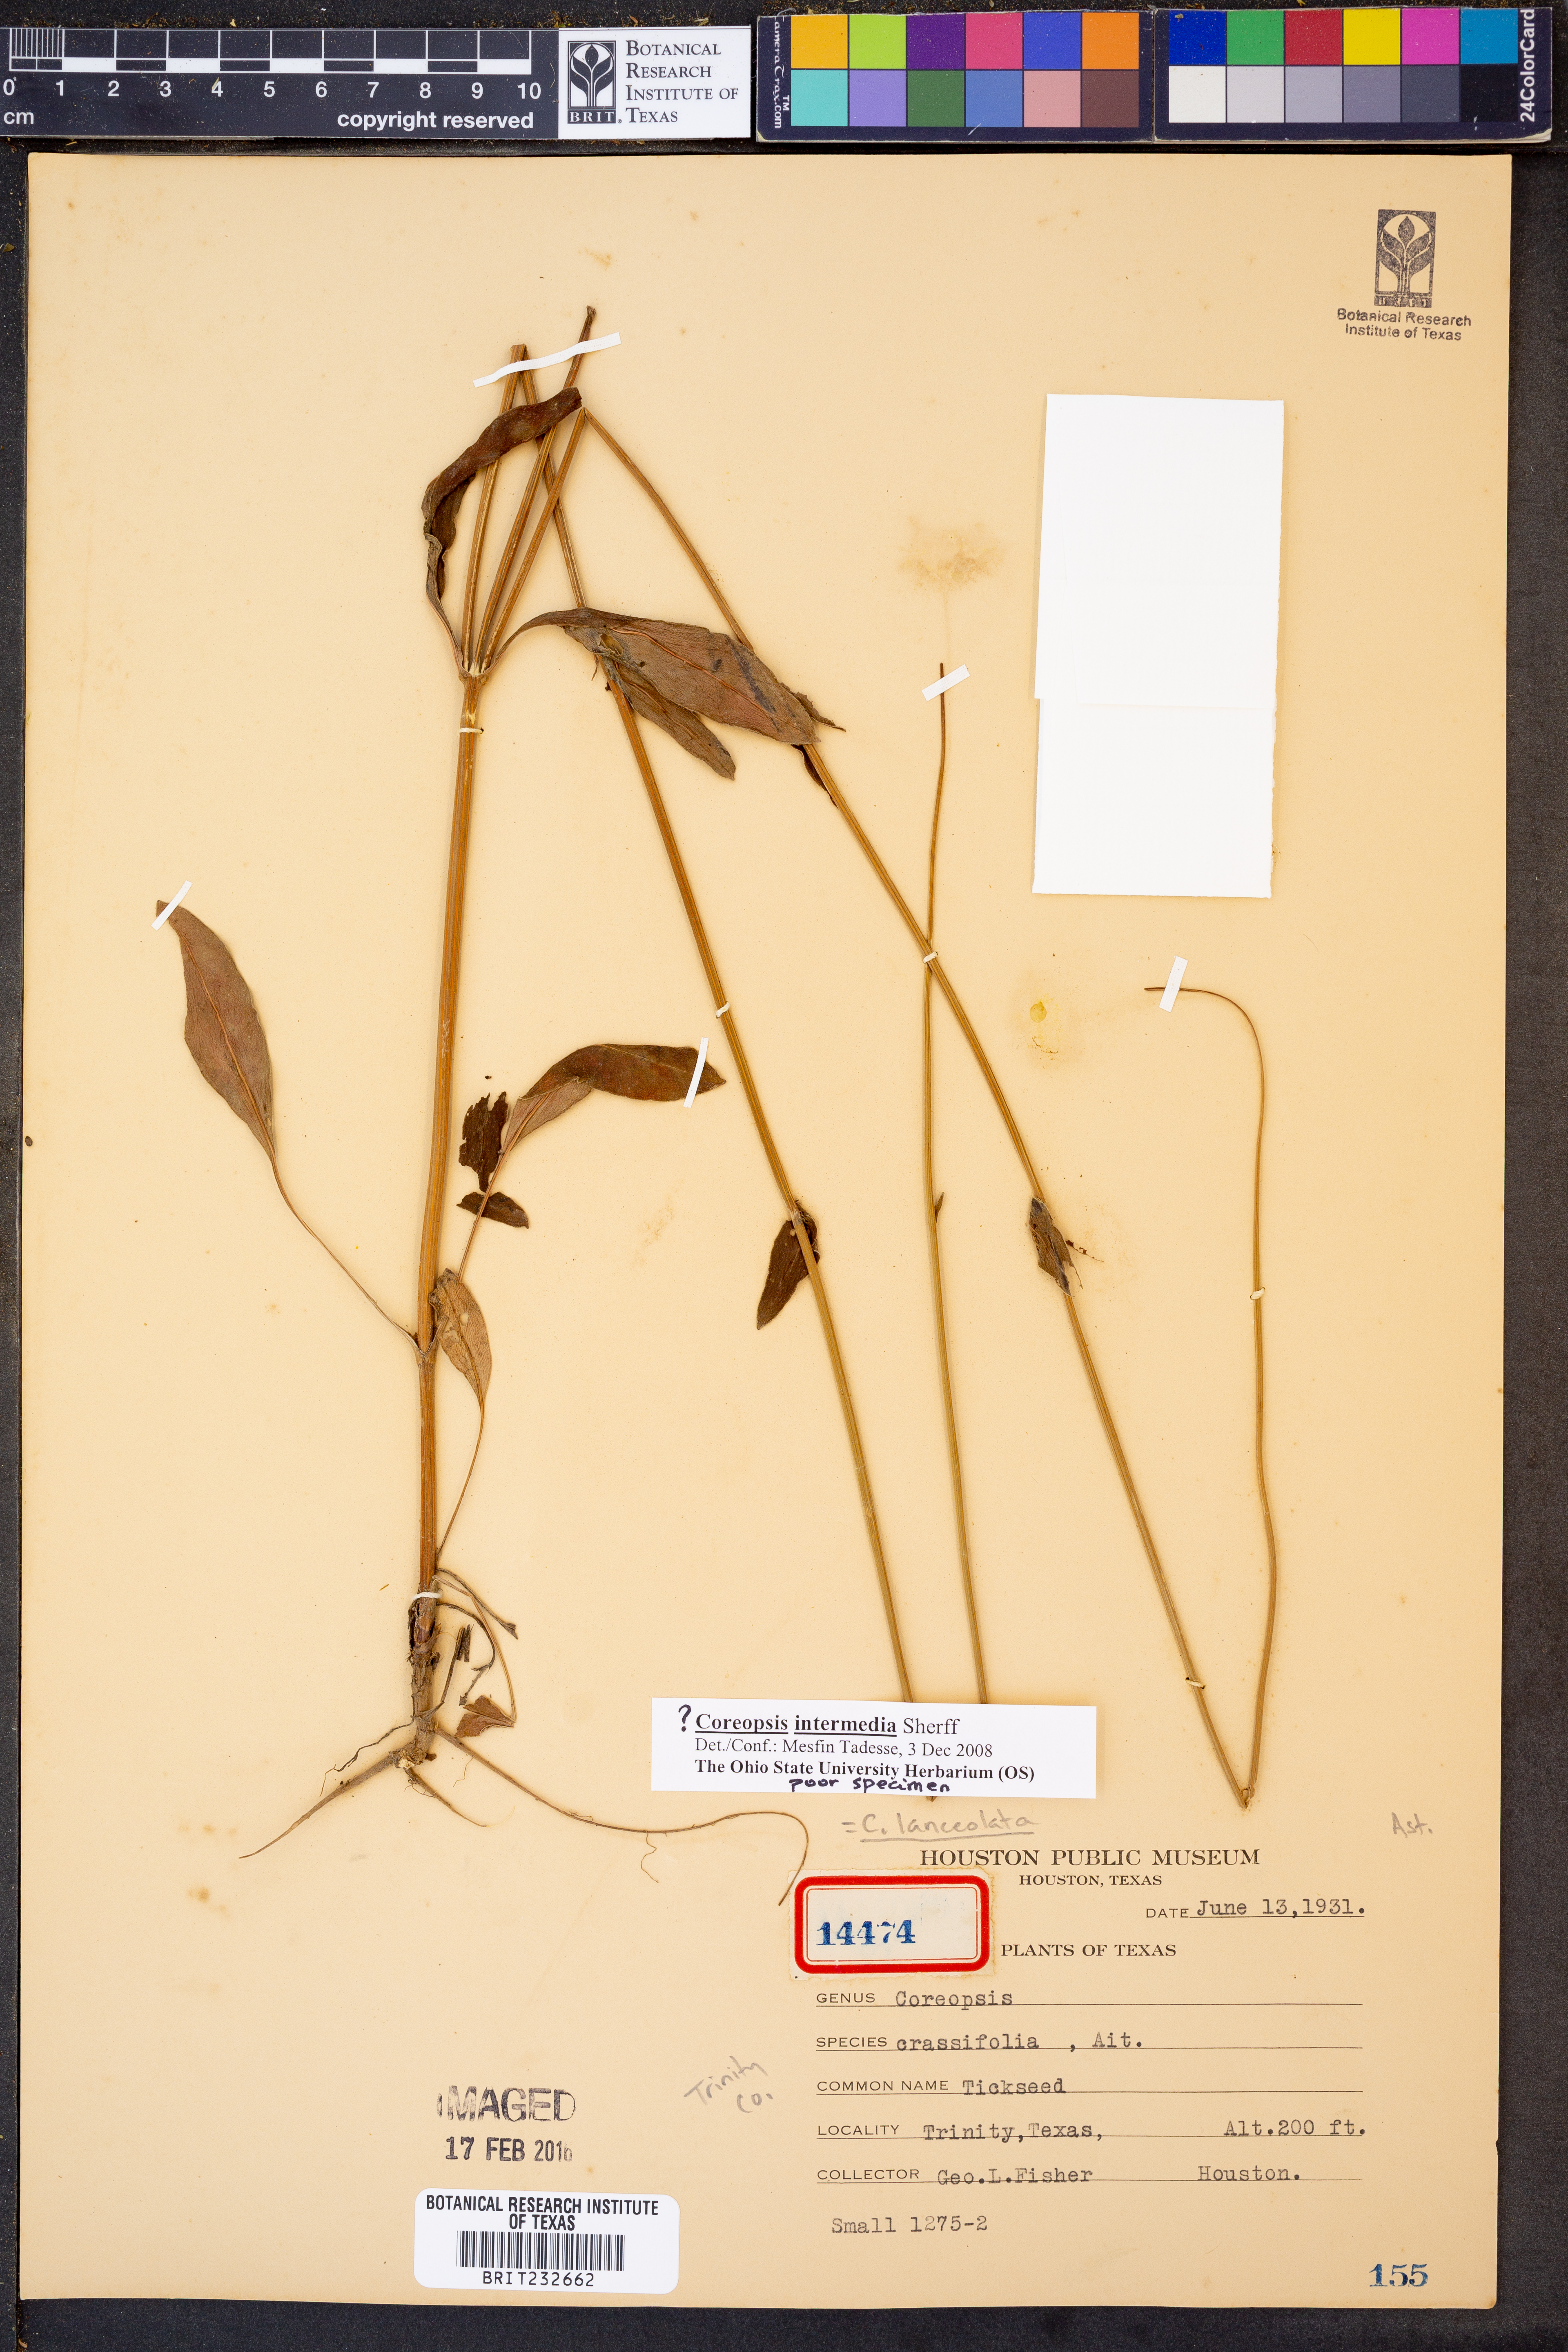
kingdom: Plantae
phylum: Tracheophyta
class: Magnoliopsida
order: Asterales
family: Asteraceae
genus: Coreopsis
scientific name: Coreopsis intermedia
